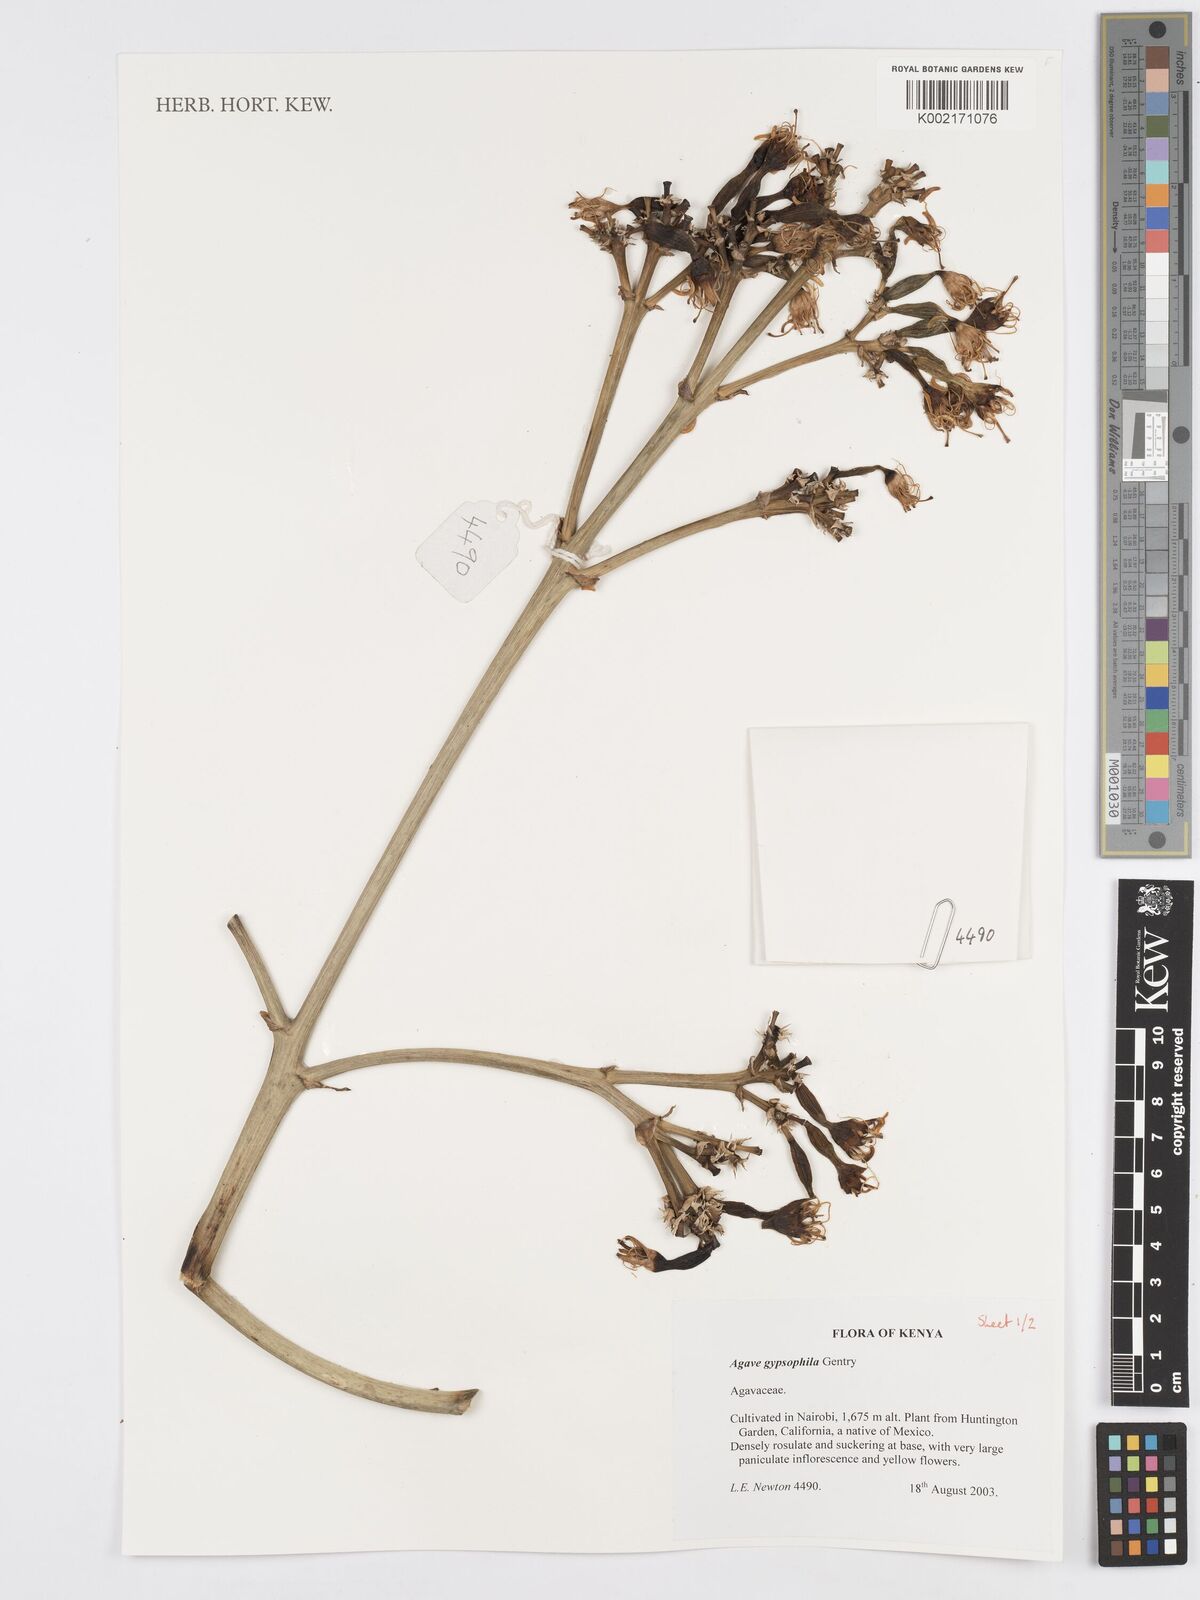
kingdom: Plantae
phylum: Tracheophyta
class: Liliopsida
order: Asparagales
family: Asparagaceae
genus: Agave
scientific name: Agave gypsophila
